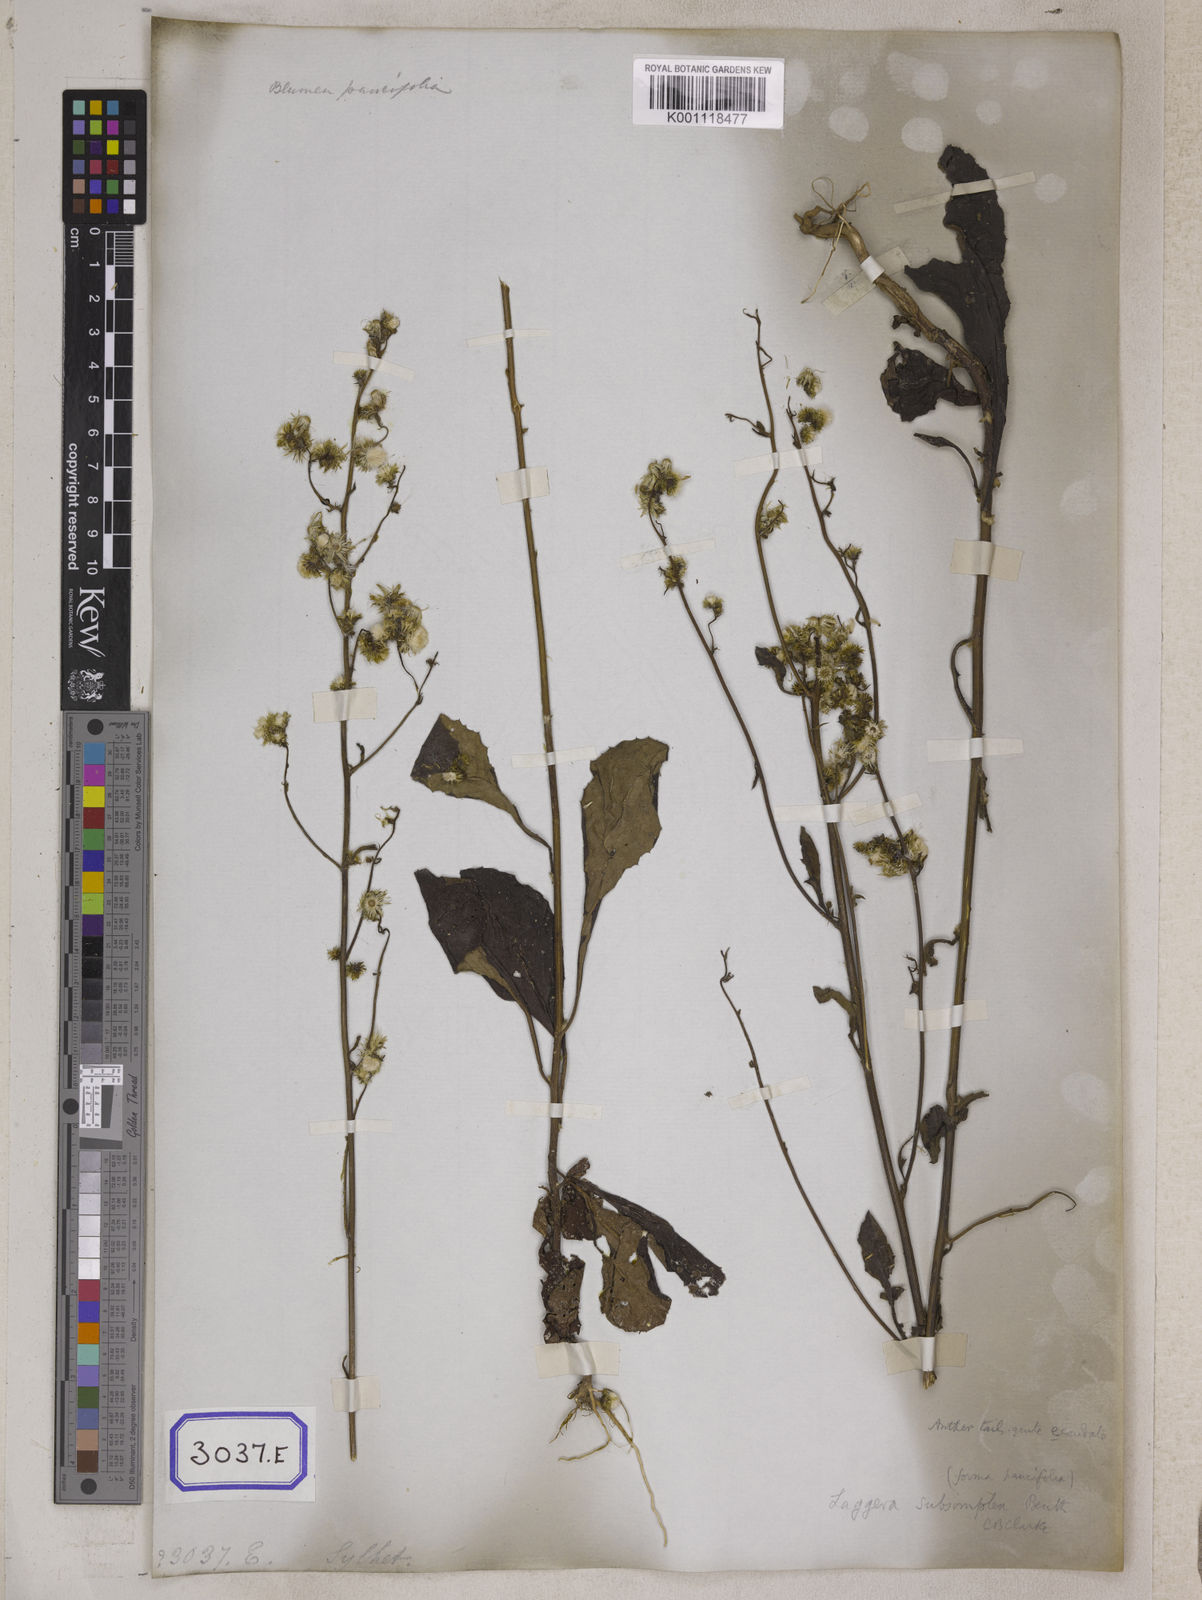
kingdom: Plantae
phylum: Tracheophyta
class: Magnoliopsida
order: Asterales
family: Asteraceae
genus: Blumea
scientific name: Blumea virens
